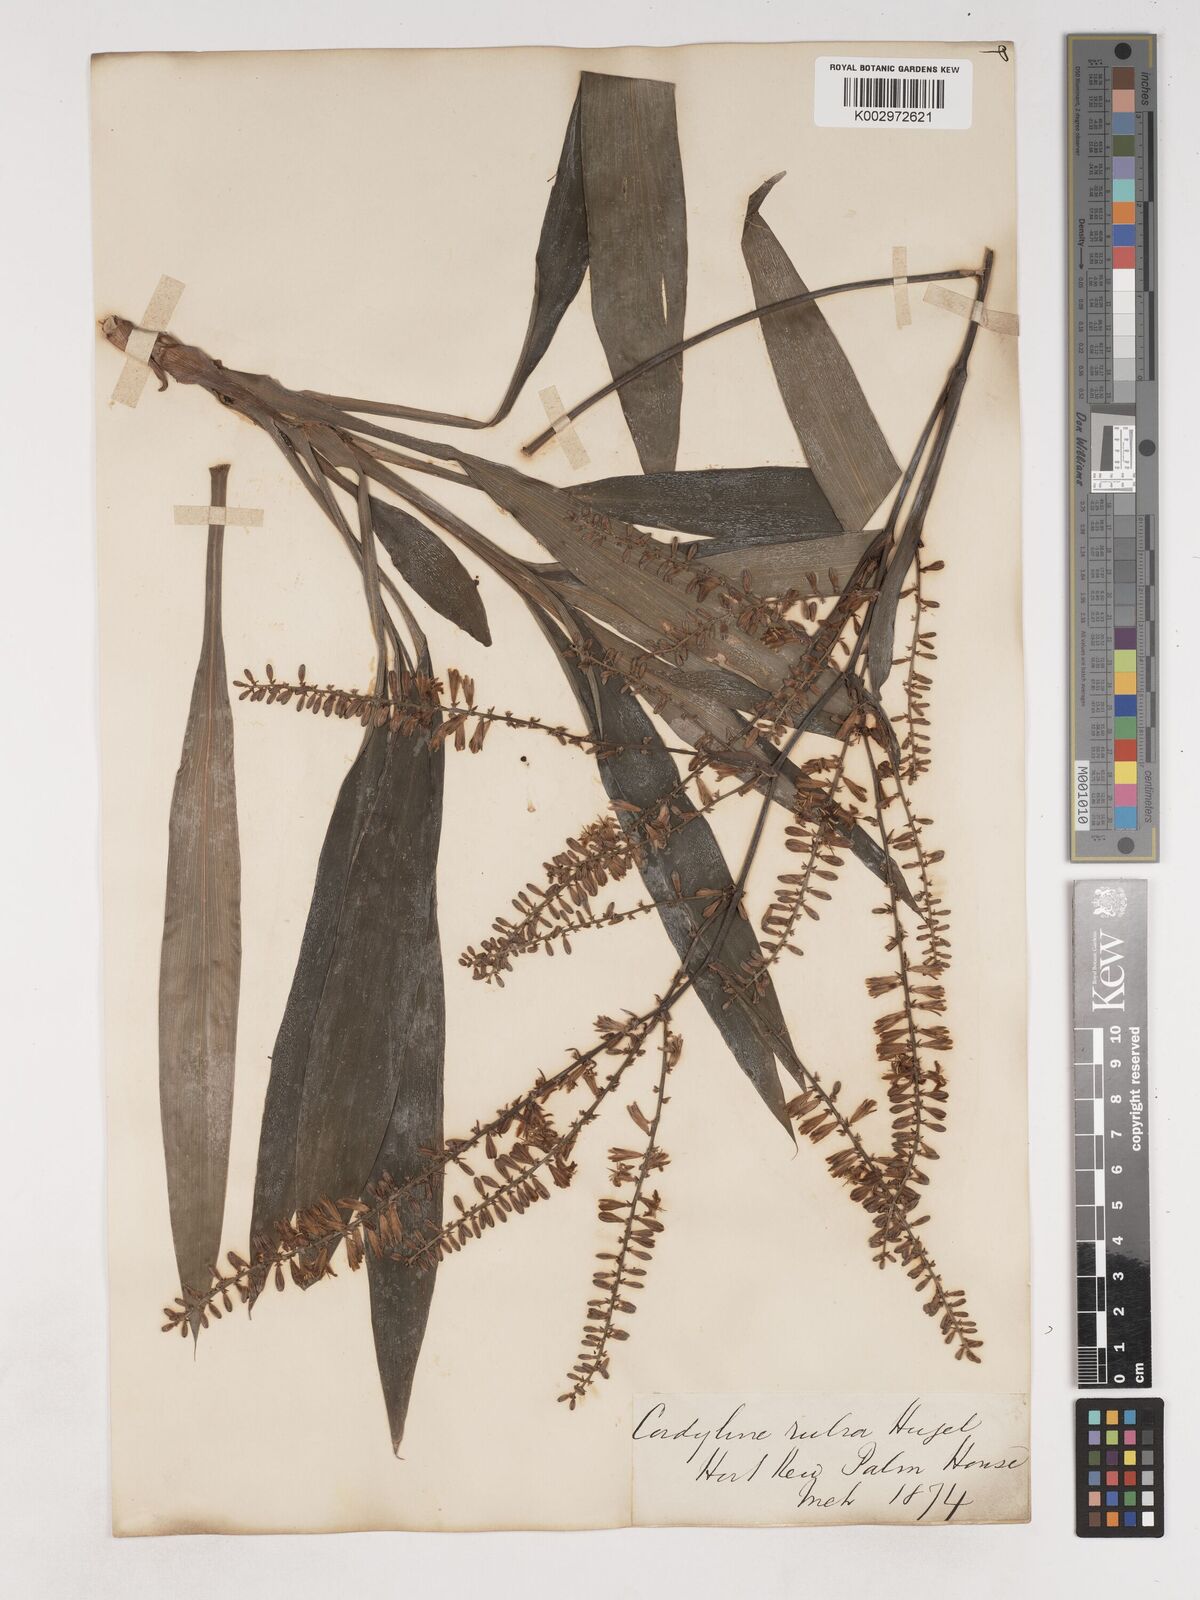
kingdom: Plantae
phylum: Tracheophyta
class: Liliopsida
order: Asparagales
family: Asparagaceae
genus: Cordyline
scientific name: Cordyline rubra
